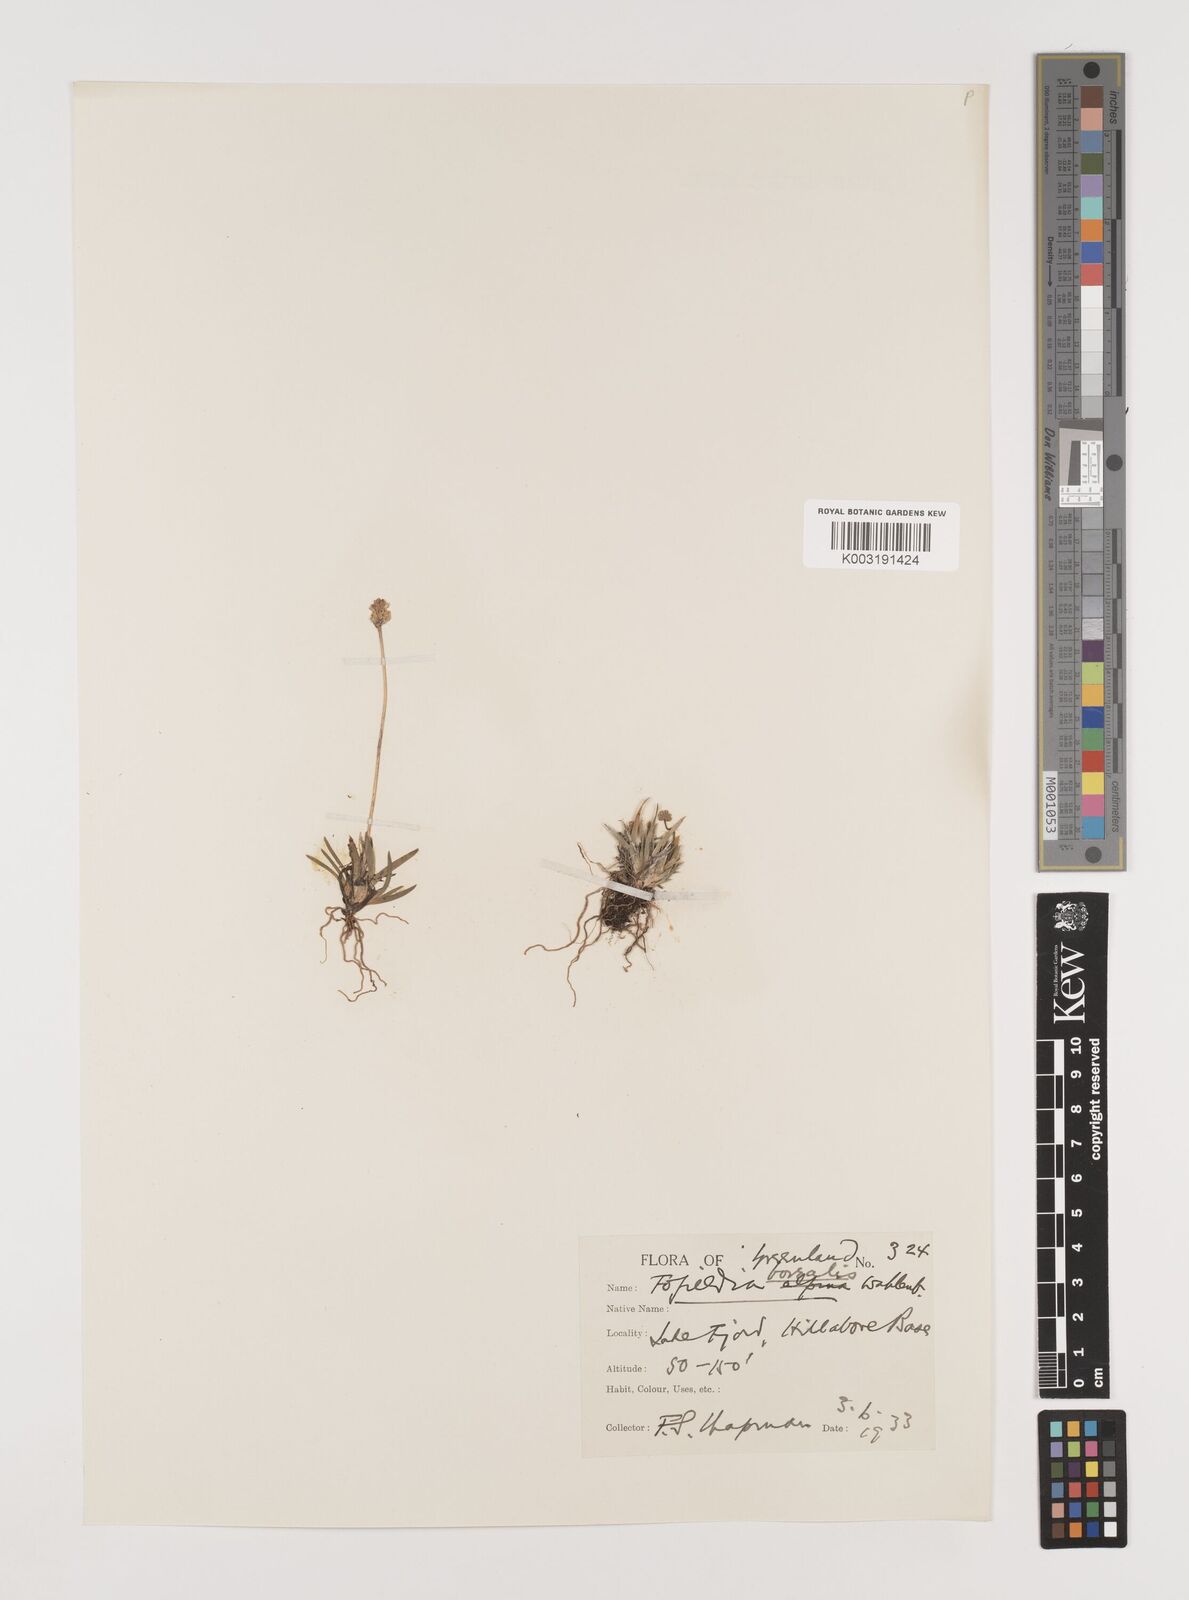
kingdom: Plantae
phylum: Tracheophyta
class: Liliopsida
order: Alismatales
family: Tofieldiaceae
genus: Tofieldia
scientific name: Tofieldia pusilla
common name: Scottish false asphodel
